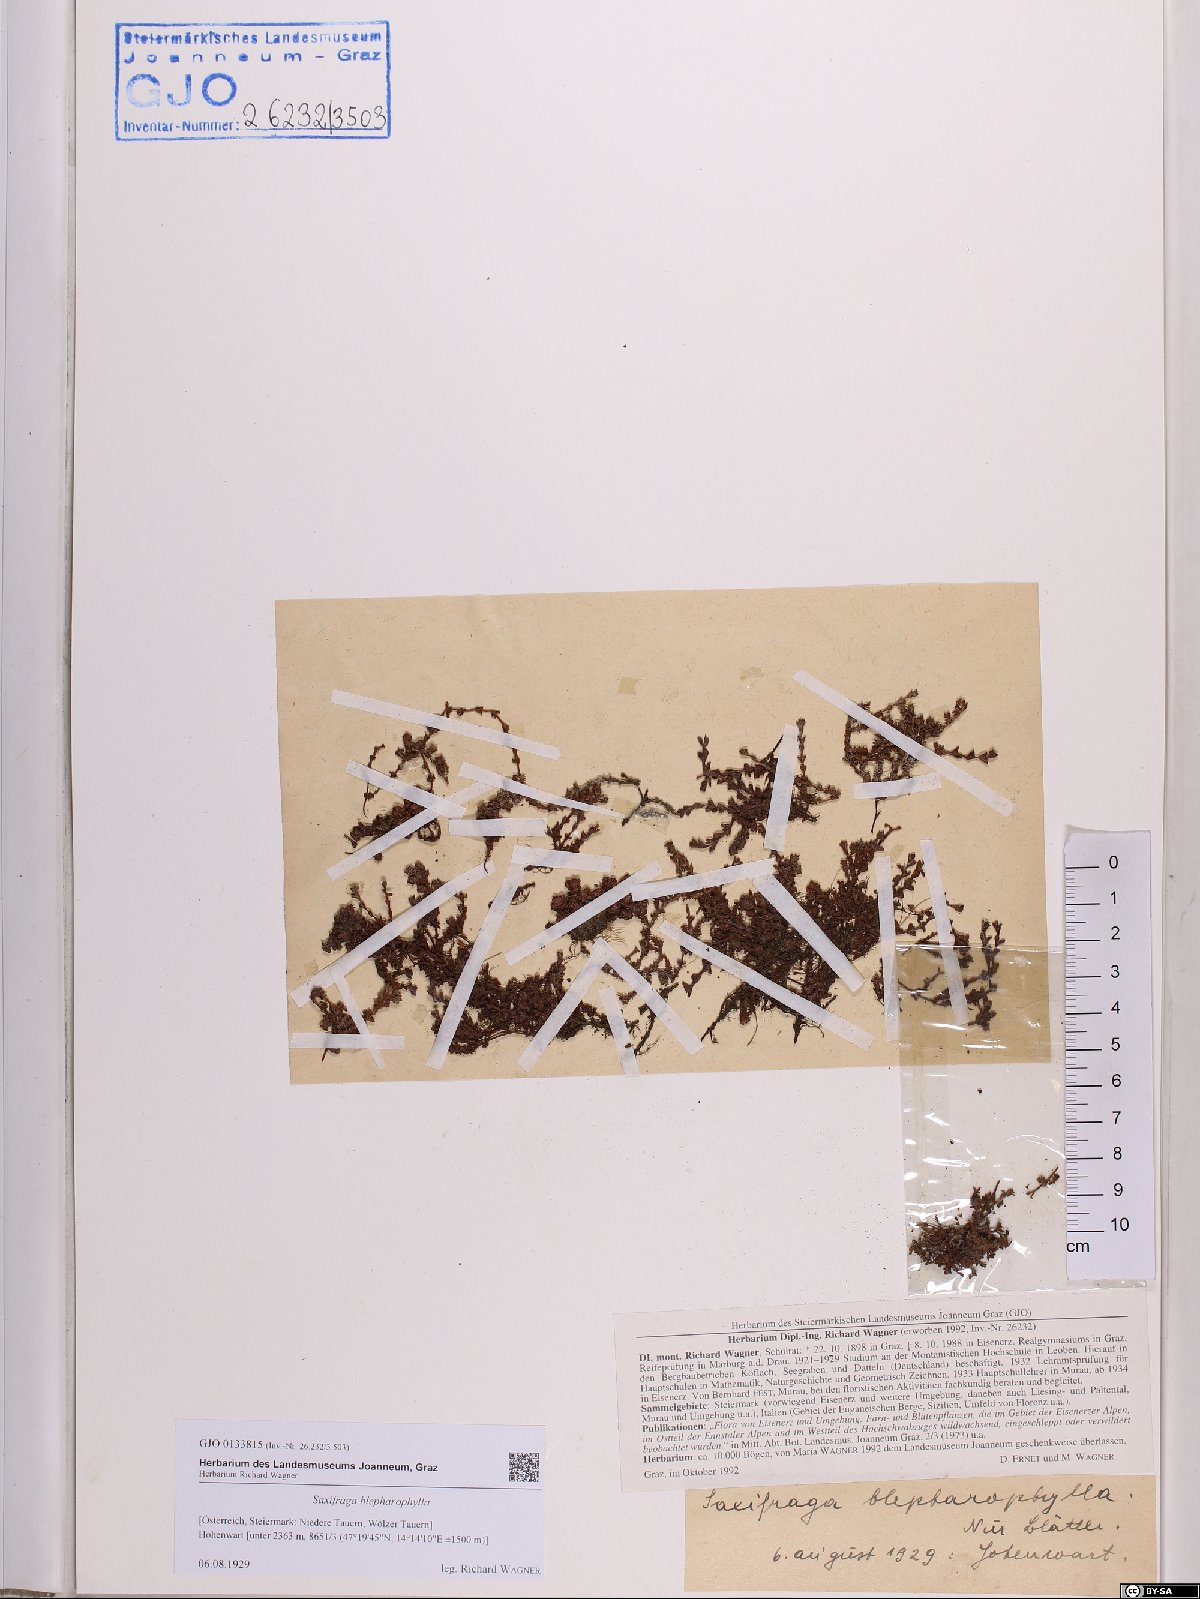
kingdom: Plantae
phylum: Tracheophyta
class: Magnoliopsida
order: Saxifragales
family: Saxifragaceae
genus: Saxifraga
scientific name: Saxifraga oppositifolia
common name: Purple saxifrage
